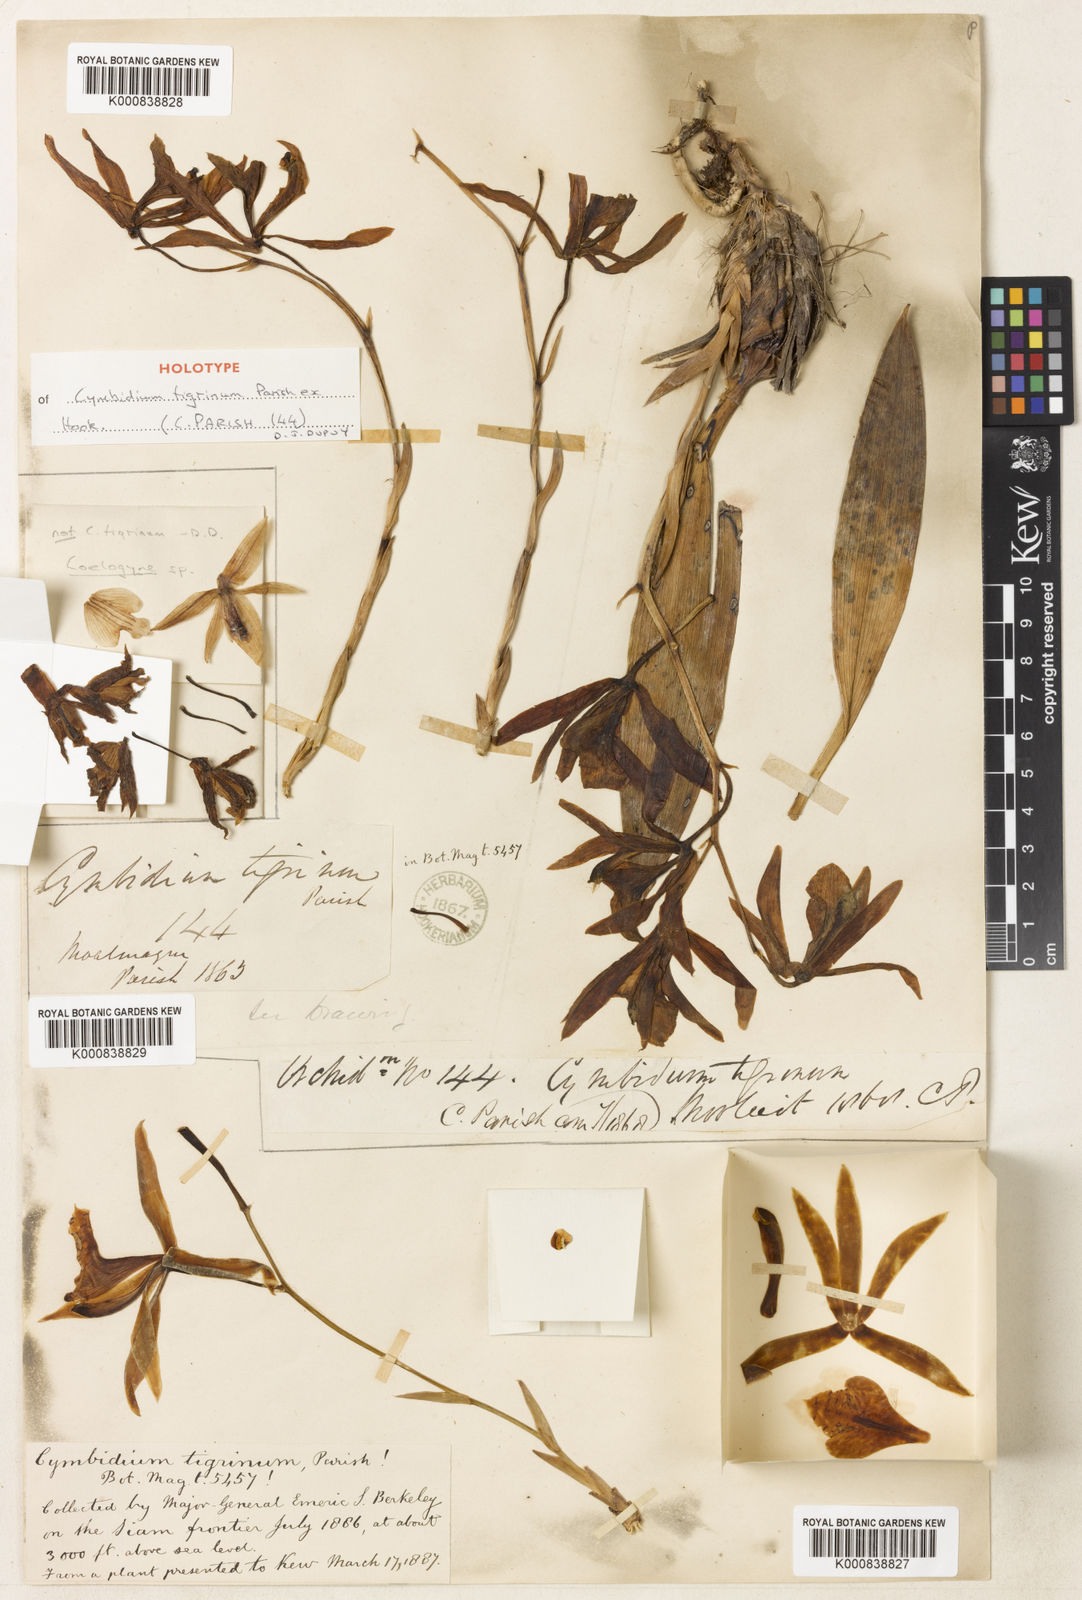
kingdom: Plantae
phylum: Tracheophyta
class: Liliopsida
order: Asparagales
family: Orchidaceae
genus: Cymbidium
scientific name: Cymbidium tigrinum
